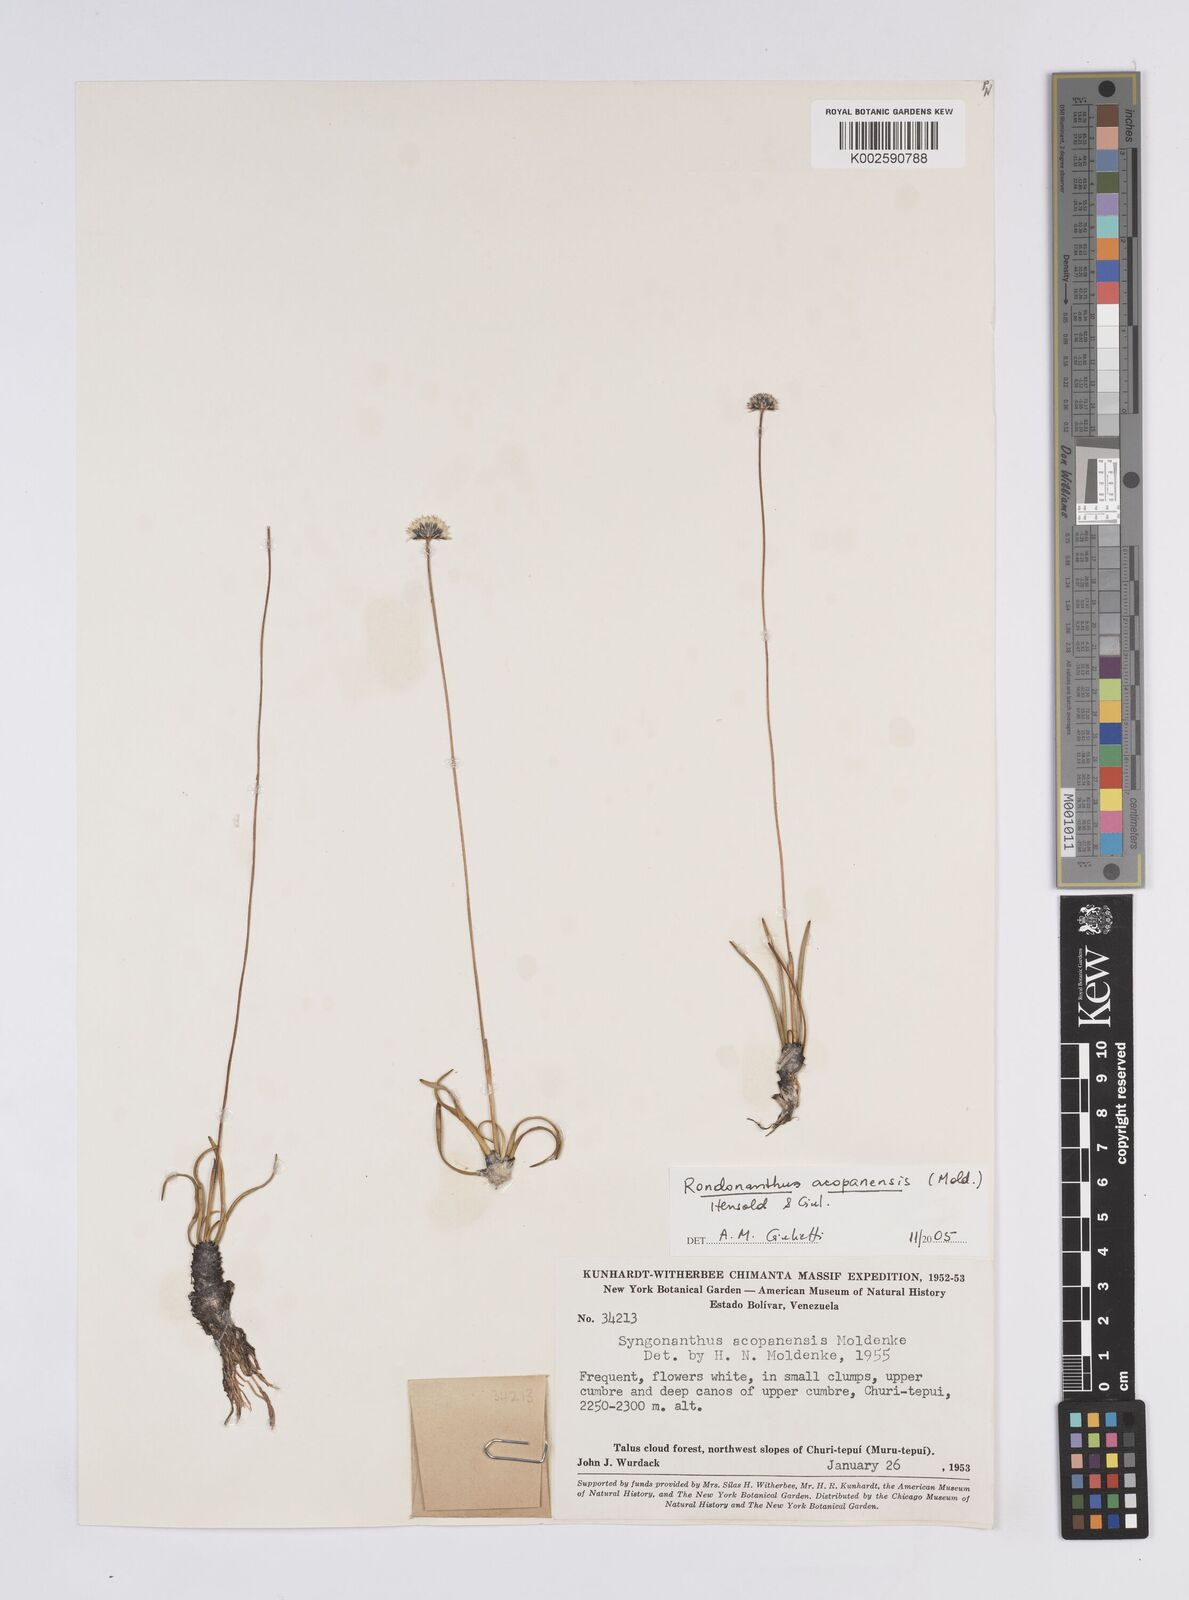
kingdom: Plantae
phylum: Tracheophyta
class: Liliopsida
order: Poales
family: Eriocaulaceae
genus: Rondonanthus
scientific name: Rondonanthus acopanensis
